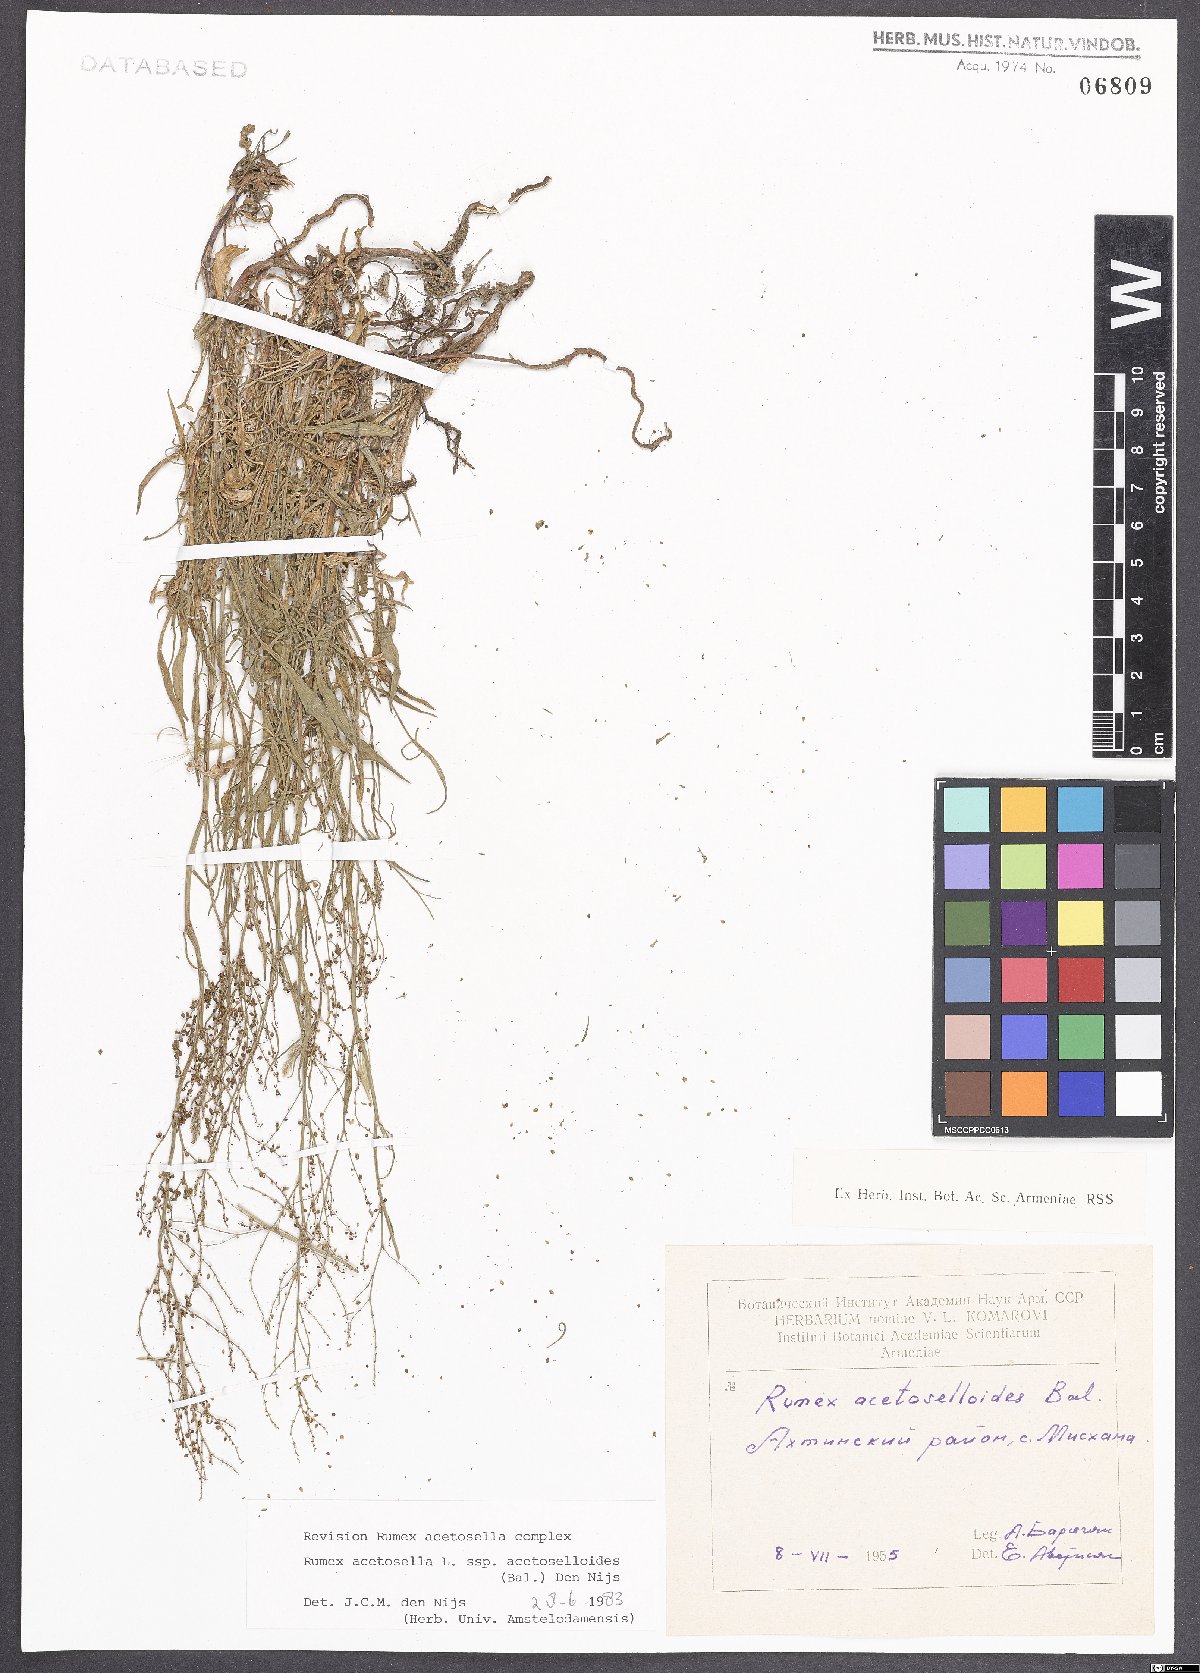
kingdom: Plantae
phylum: Tracheophyta
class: Magnoliopsida
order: Caryophyllales
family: Polygonaceae
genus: Rumex
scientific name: Rumex acetosella
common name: Common sheep sorrel
